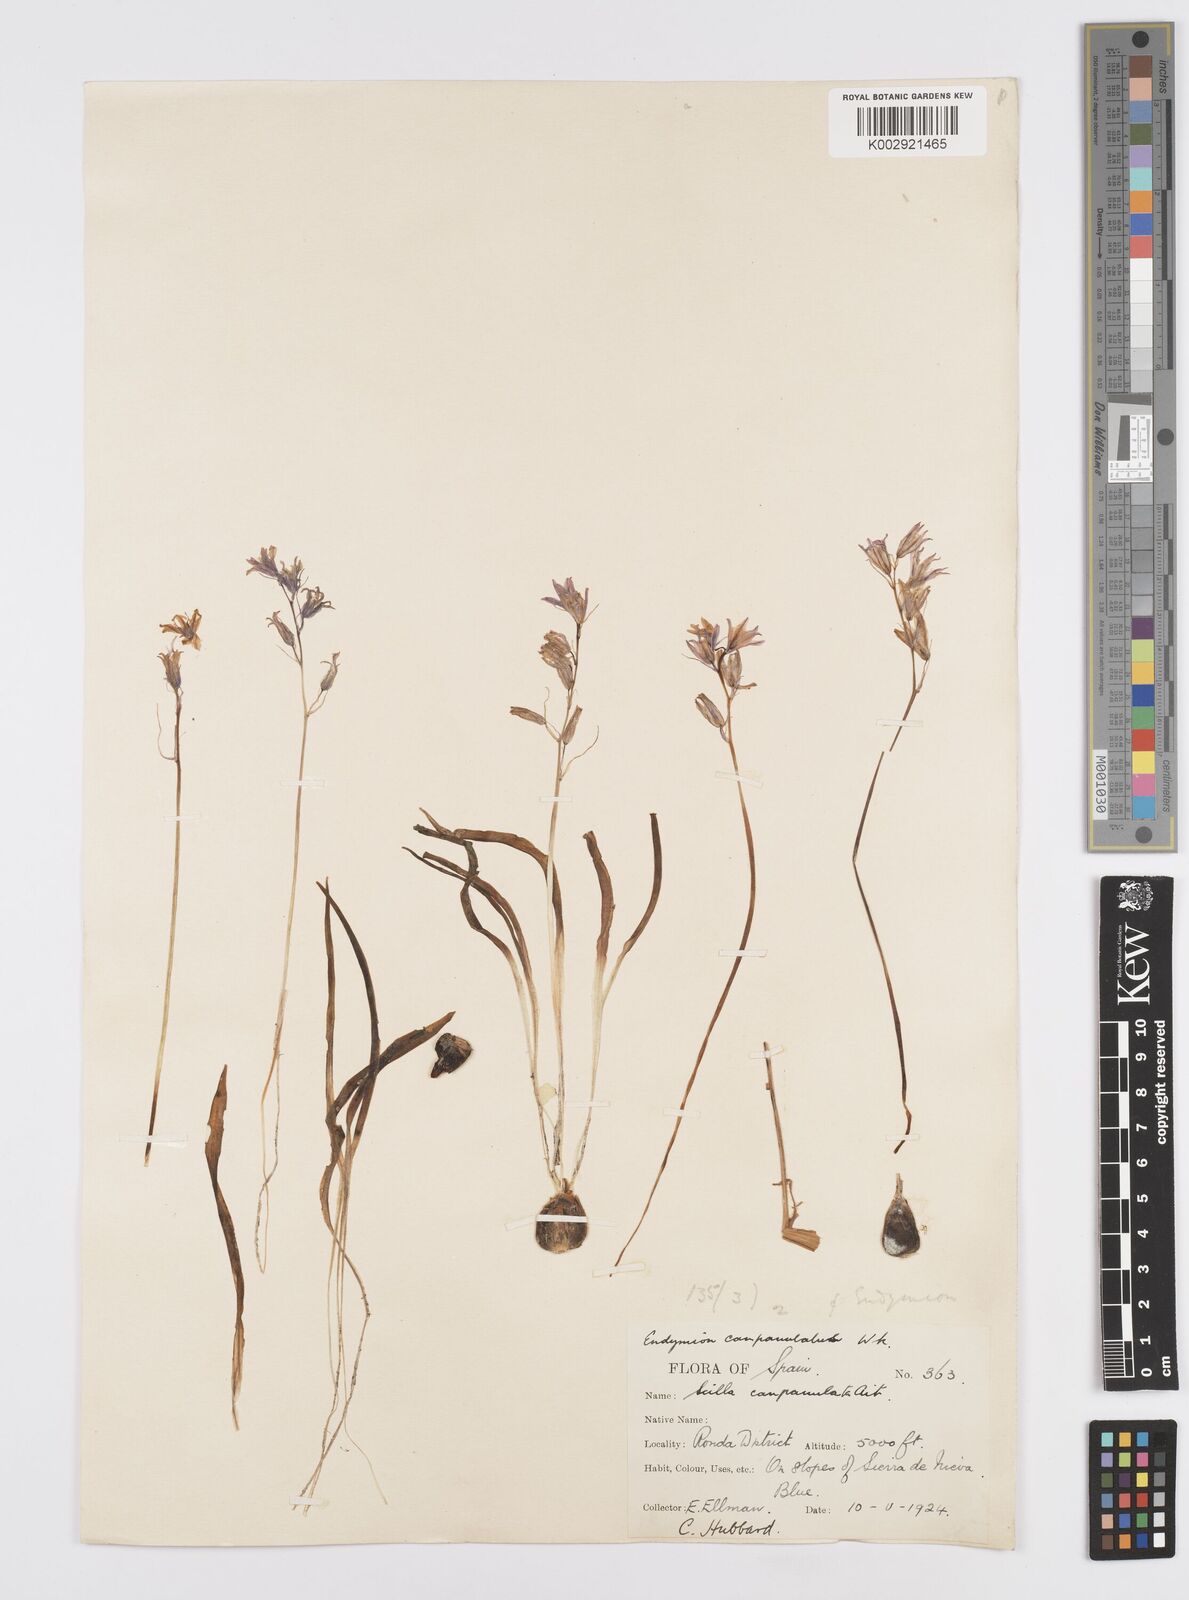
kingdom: Plantae
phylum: Tracheophyta
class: Liliopsida
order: Asparagales
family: Asparagaceae
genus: Hyacinthoides
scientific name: Hyacinthoides hispanica
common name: Spanish bluebell
